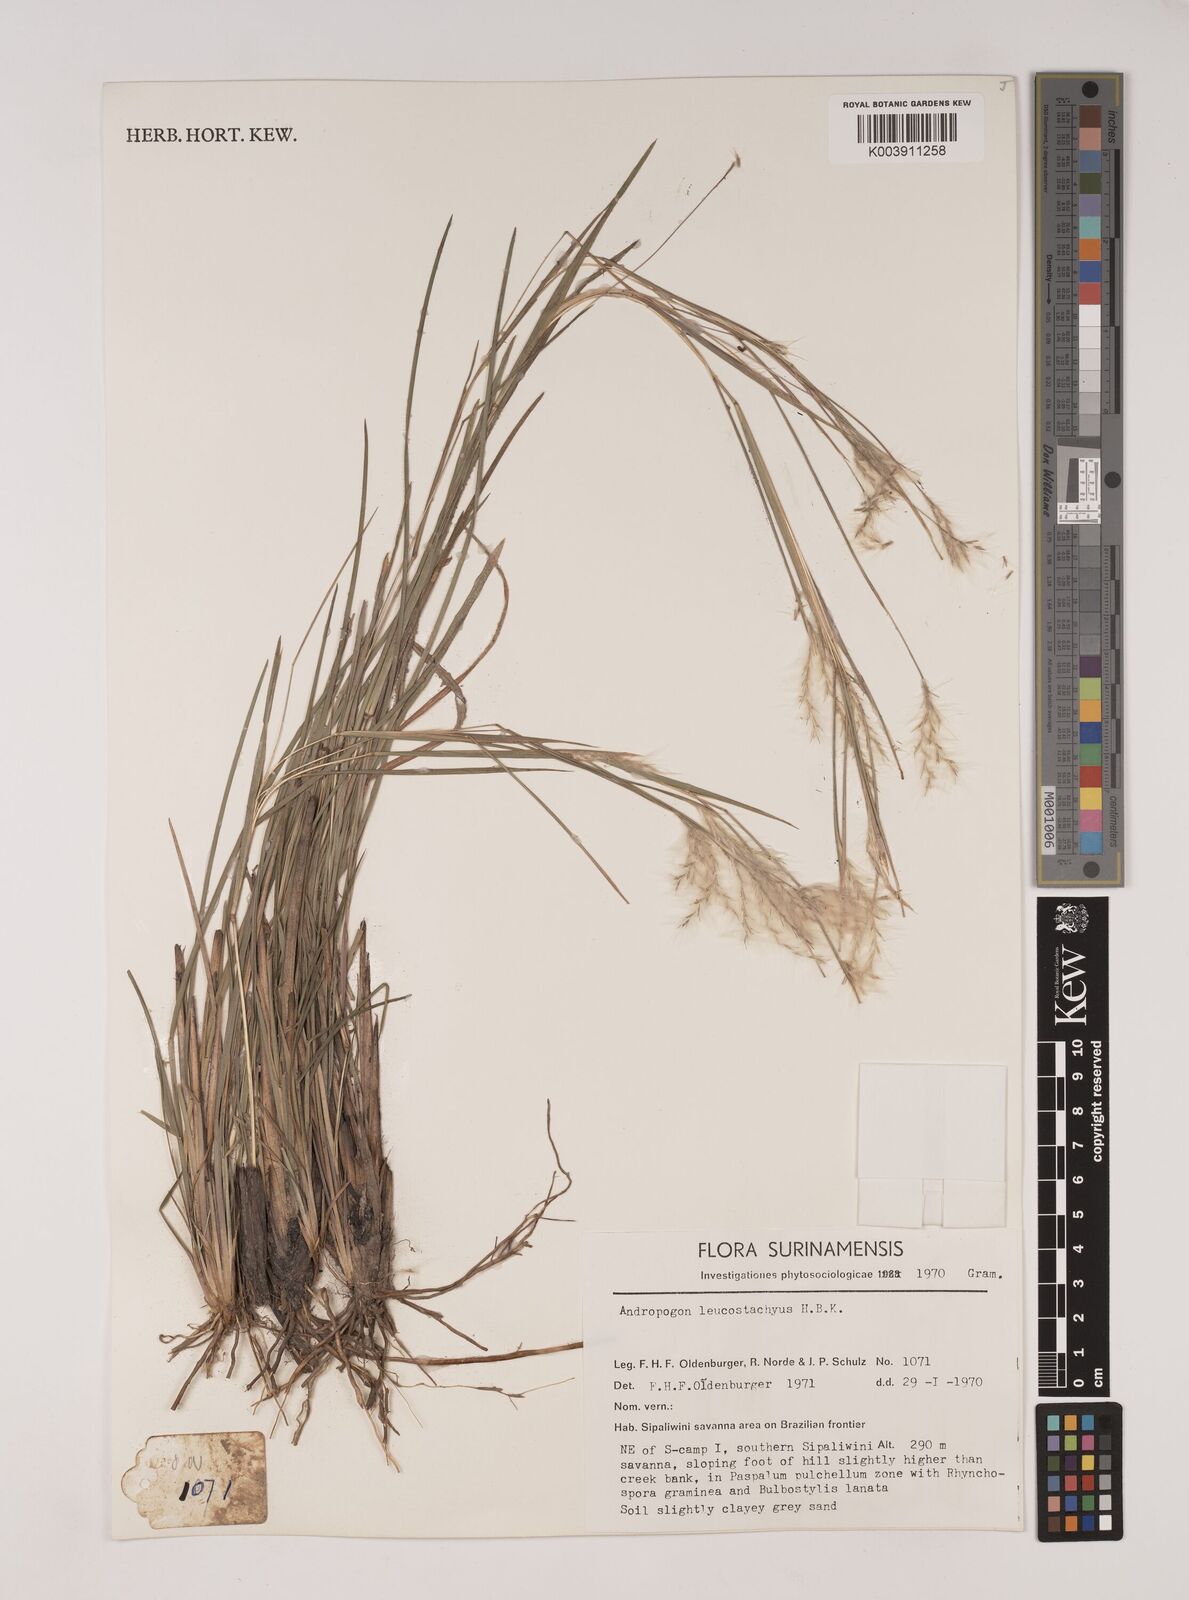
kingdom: Plantae
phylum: Tracheophyta
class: Liliopsida
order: Poales
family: Poaceae
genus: Andropogon
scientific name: Andropogon leucostachyus
